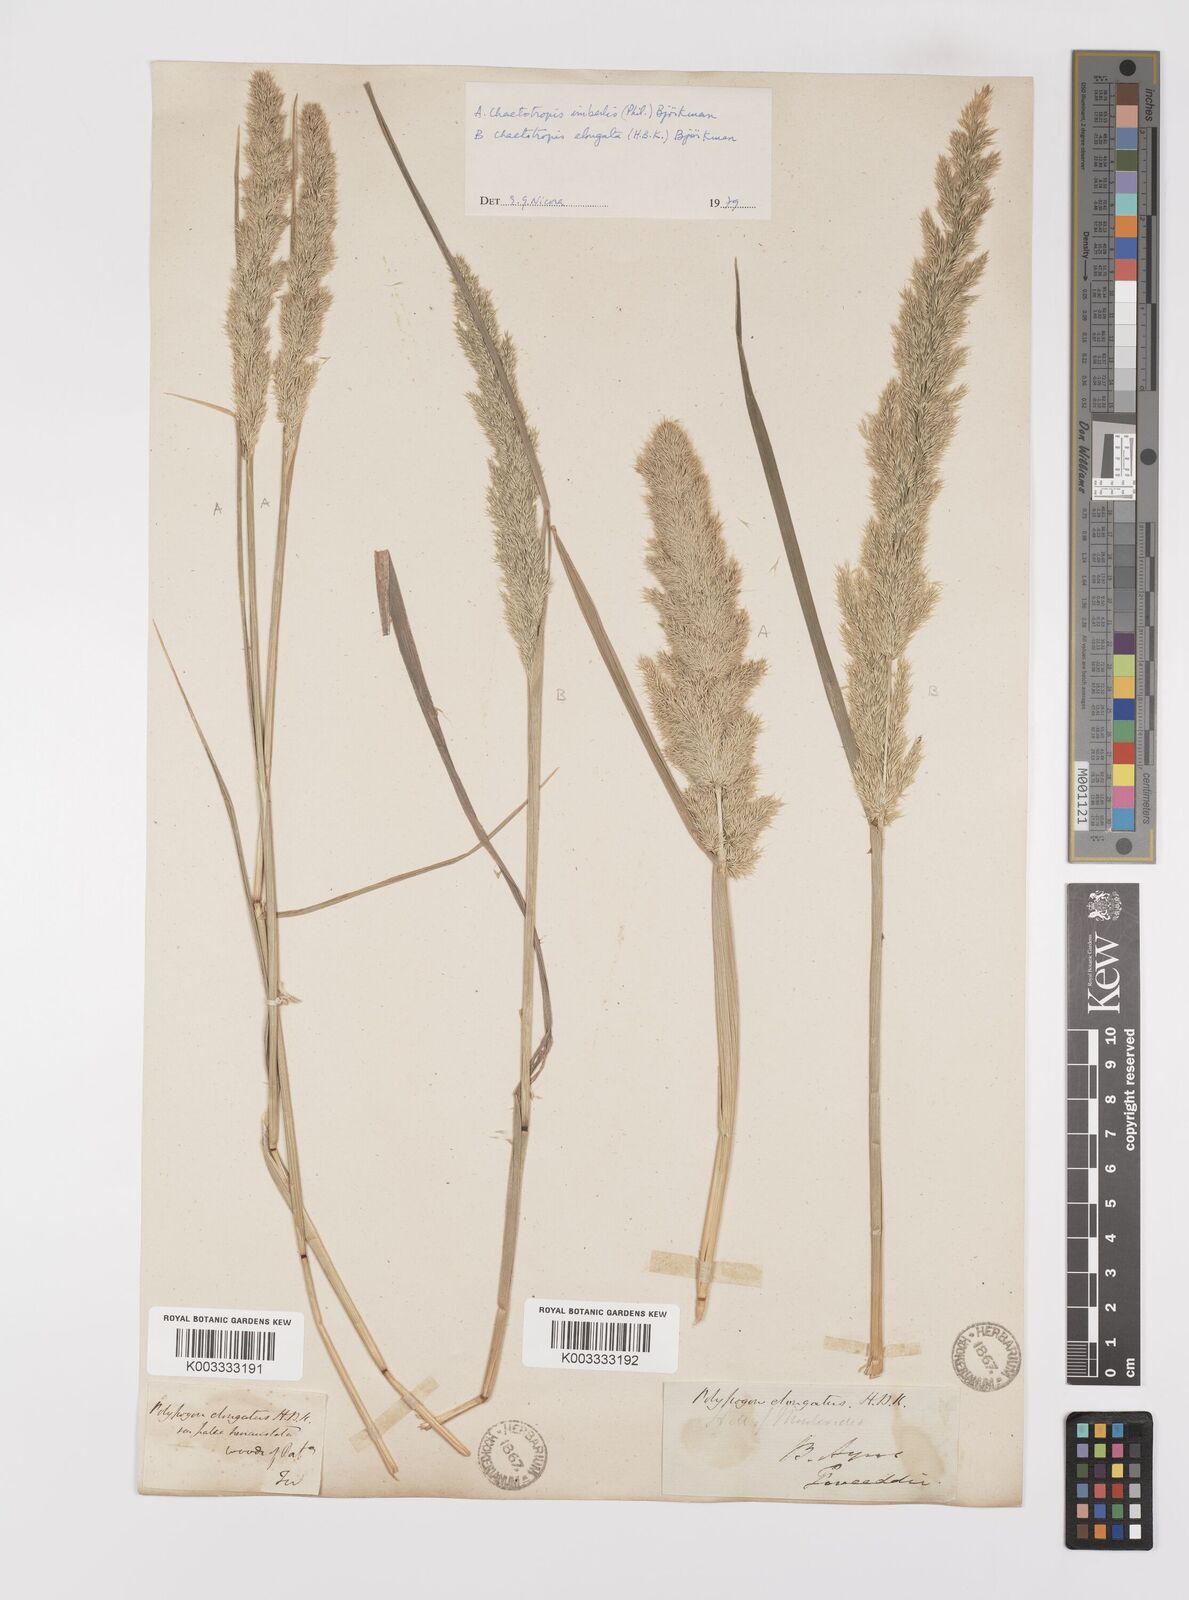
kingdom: Plantae
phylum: Tracheophyta
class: Liliopsida
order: Poales
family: Poaceae
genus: Polypogon
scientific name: Polypogon elongatus
